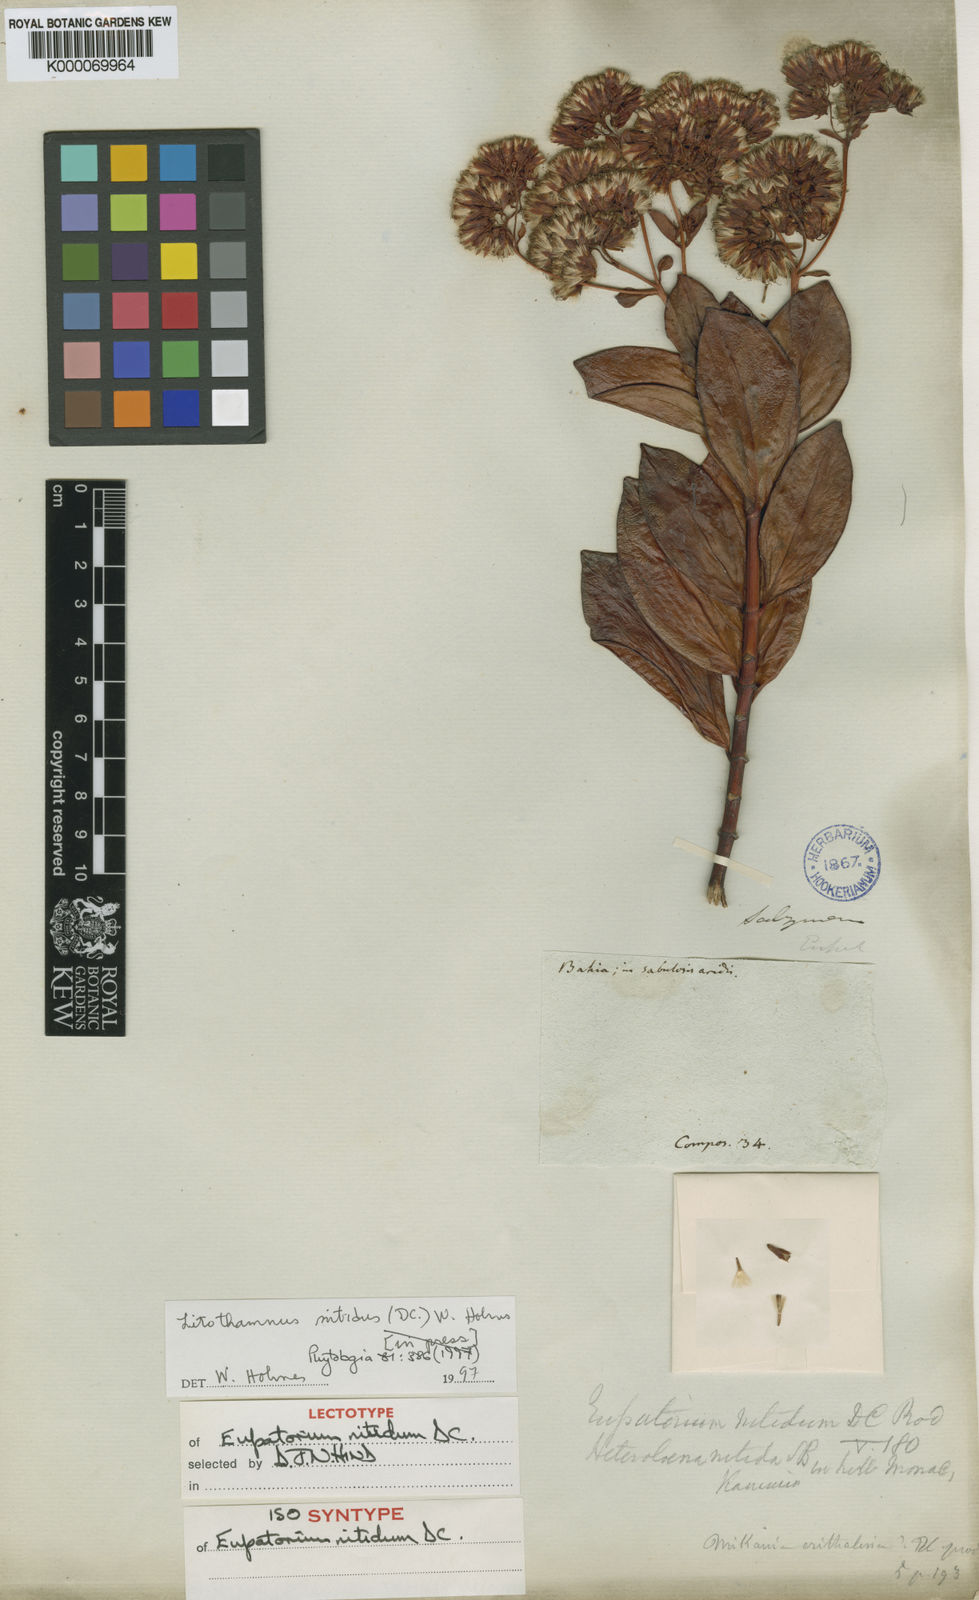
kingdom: Plantae
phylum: Tracheophyta
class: Magnoliopsida
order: Asterales
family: Asteraceae
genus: Litothamnus
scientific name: Litothamnus nitidus
